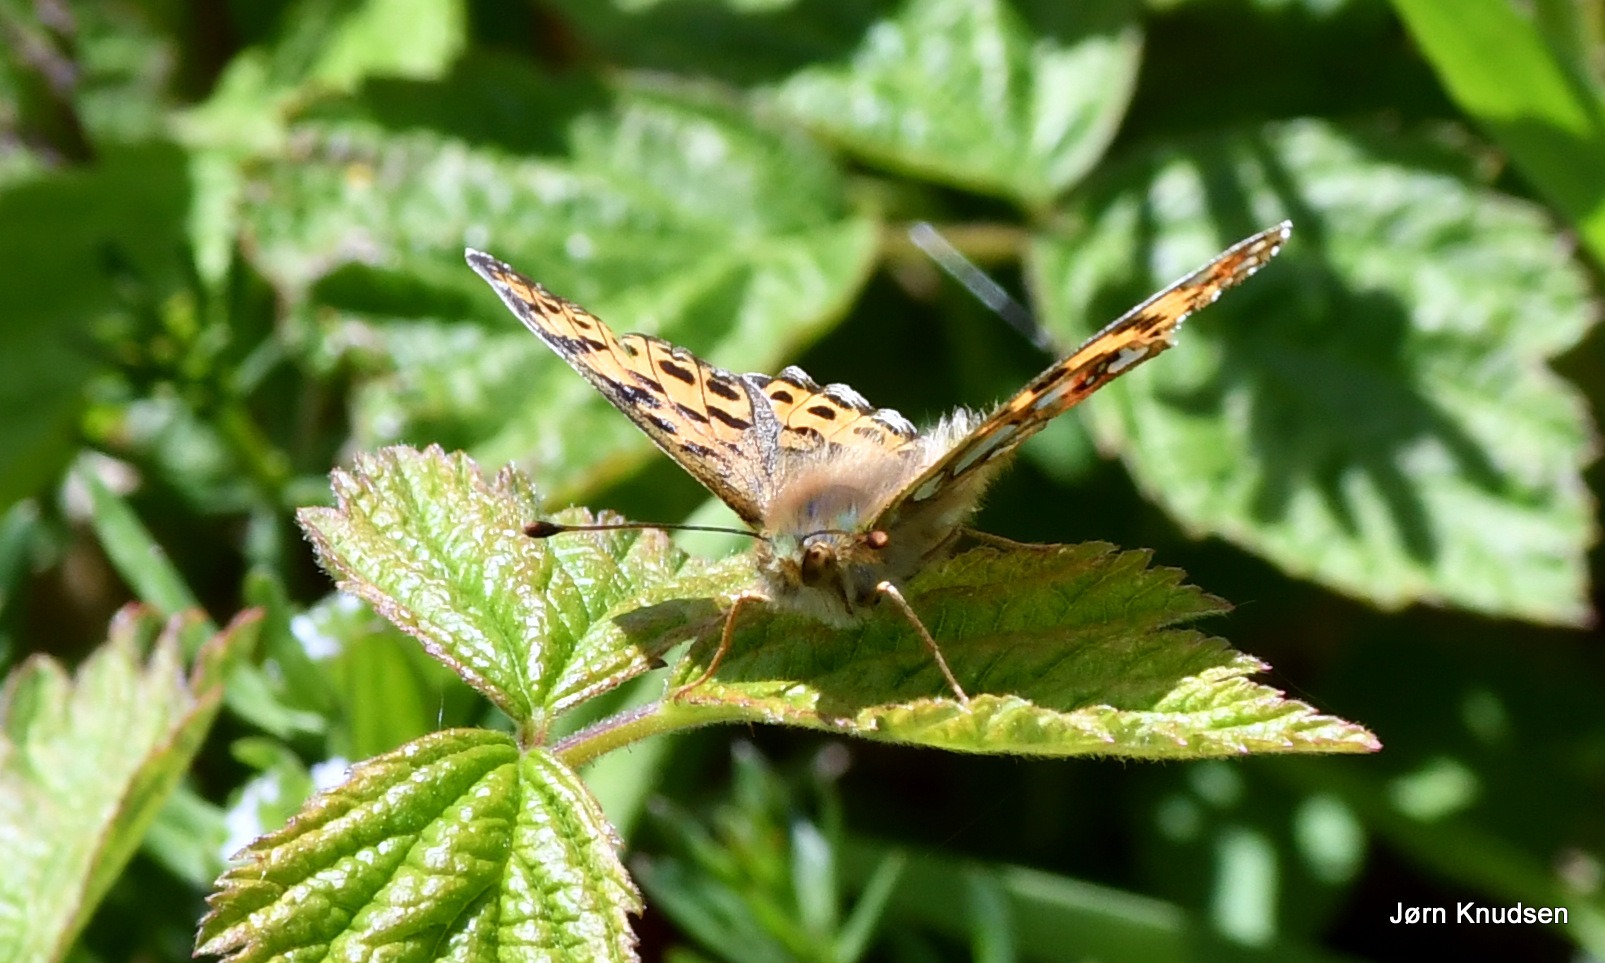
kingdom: Animalia
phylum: Arthropoda
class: Insecta
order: Lepidoptera
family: Nymphalidae
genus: Issoria
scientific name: Issoria lathonia
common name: Storplettet perlemorsommerfugl
